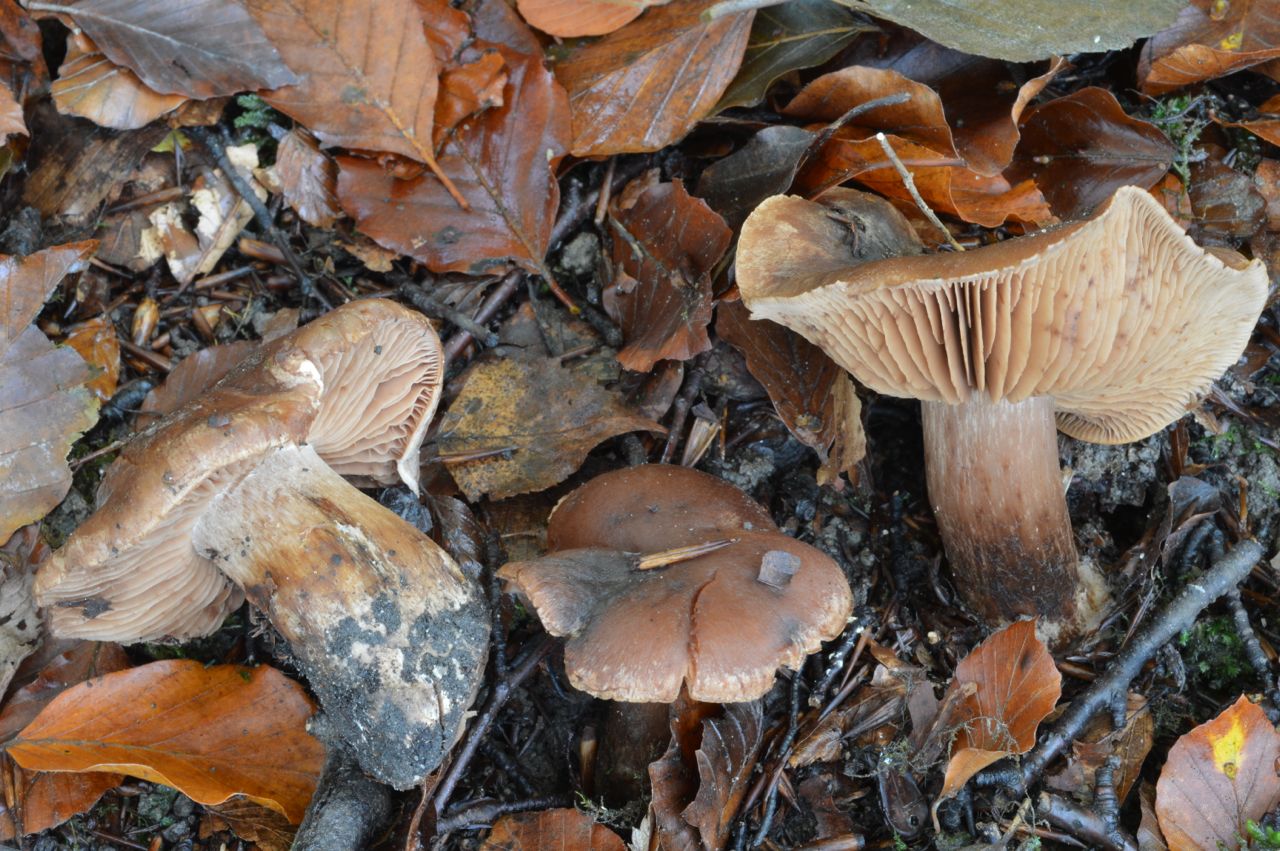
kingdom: Fungi
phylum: Basidiomycota
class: Agaricomycetes
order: Agaricales
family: Cortinariaceae
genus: Cortinarius
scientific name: Cortinarius sociatus
